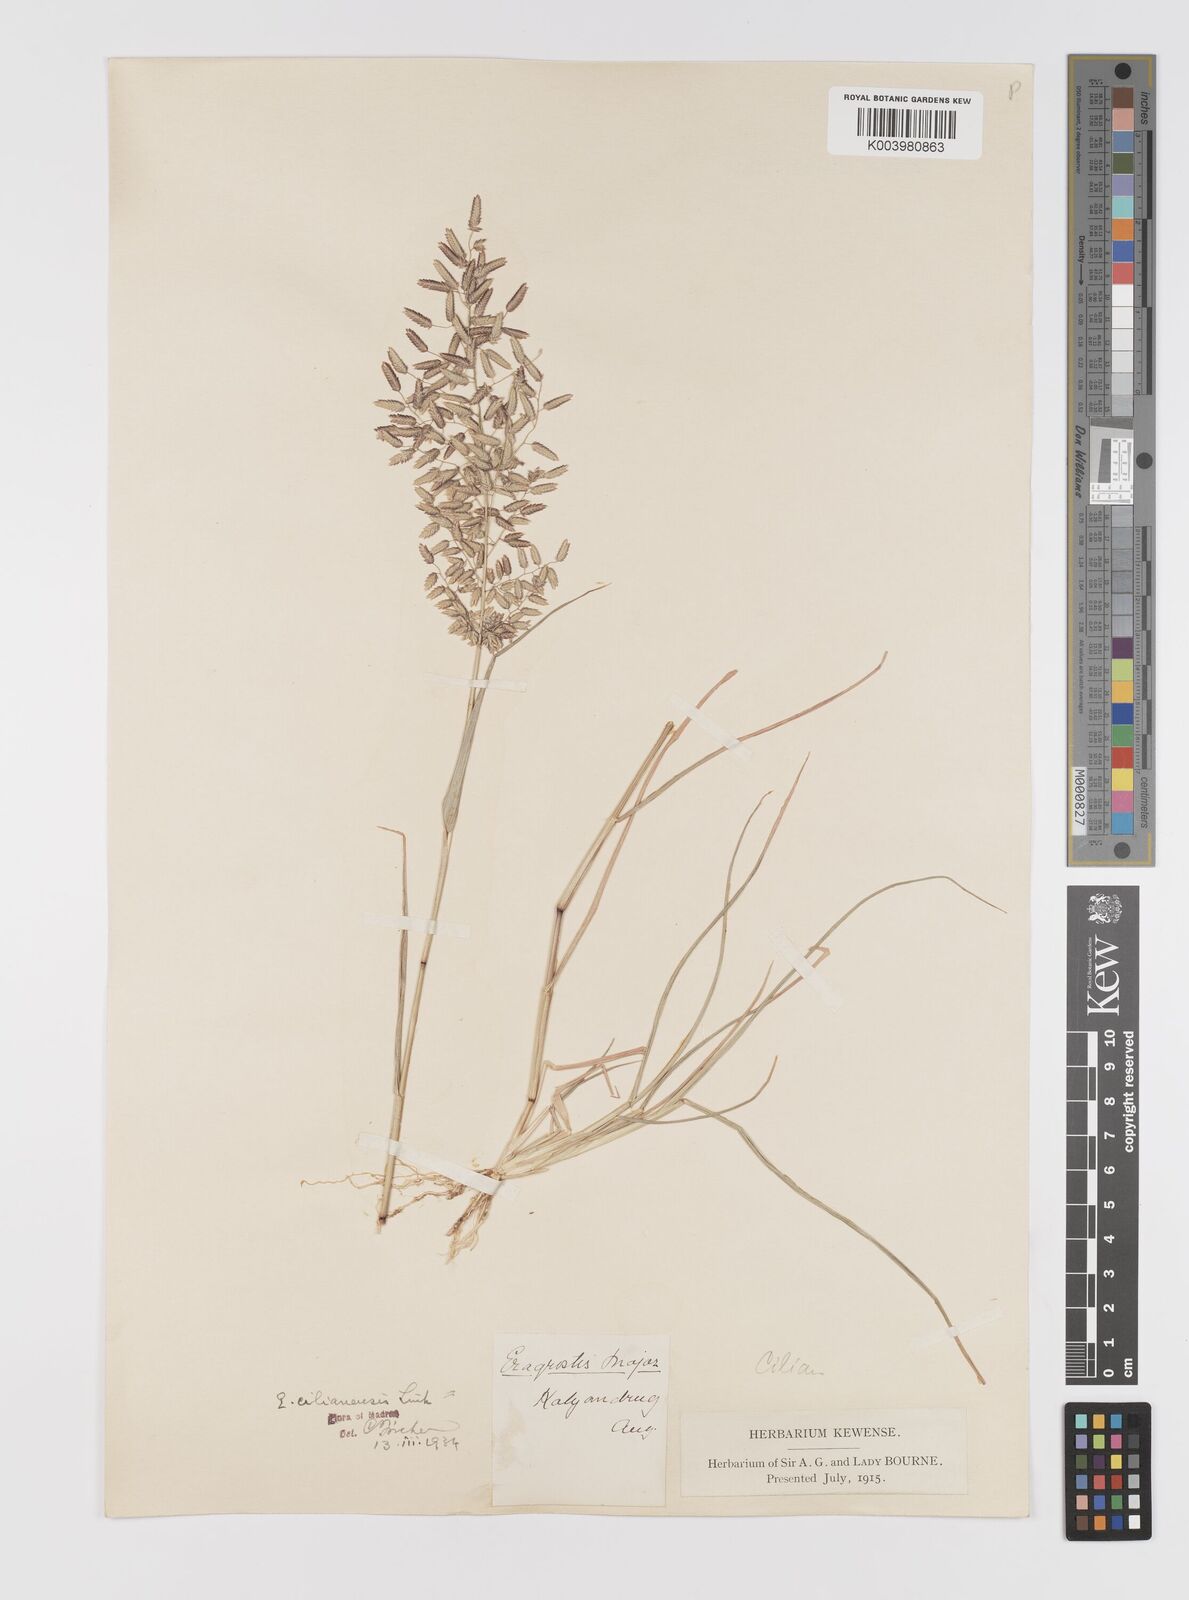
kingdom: Plantae
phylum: Tracheophyta
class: Liliopsida
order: Poales
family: Poaceae
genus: Eragrostis
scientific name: Eragrostis cilianensis
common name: Stinkgrass
